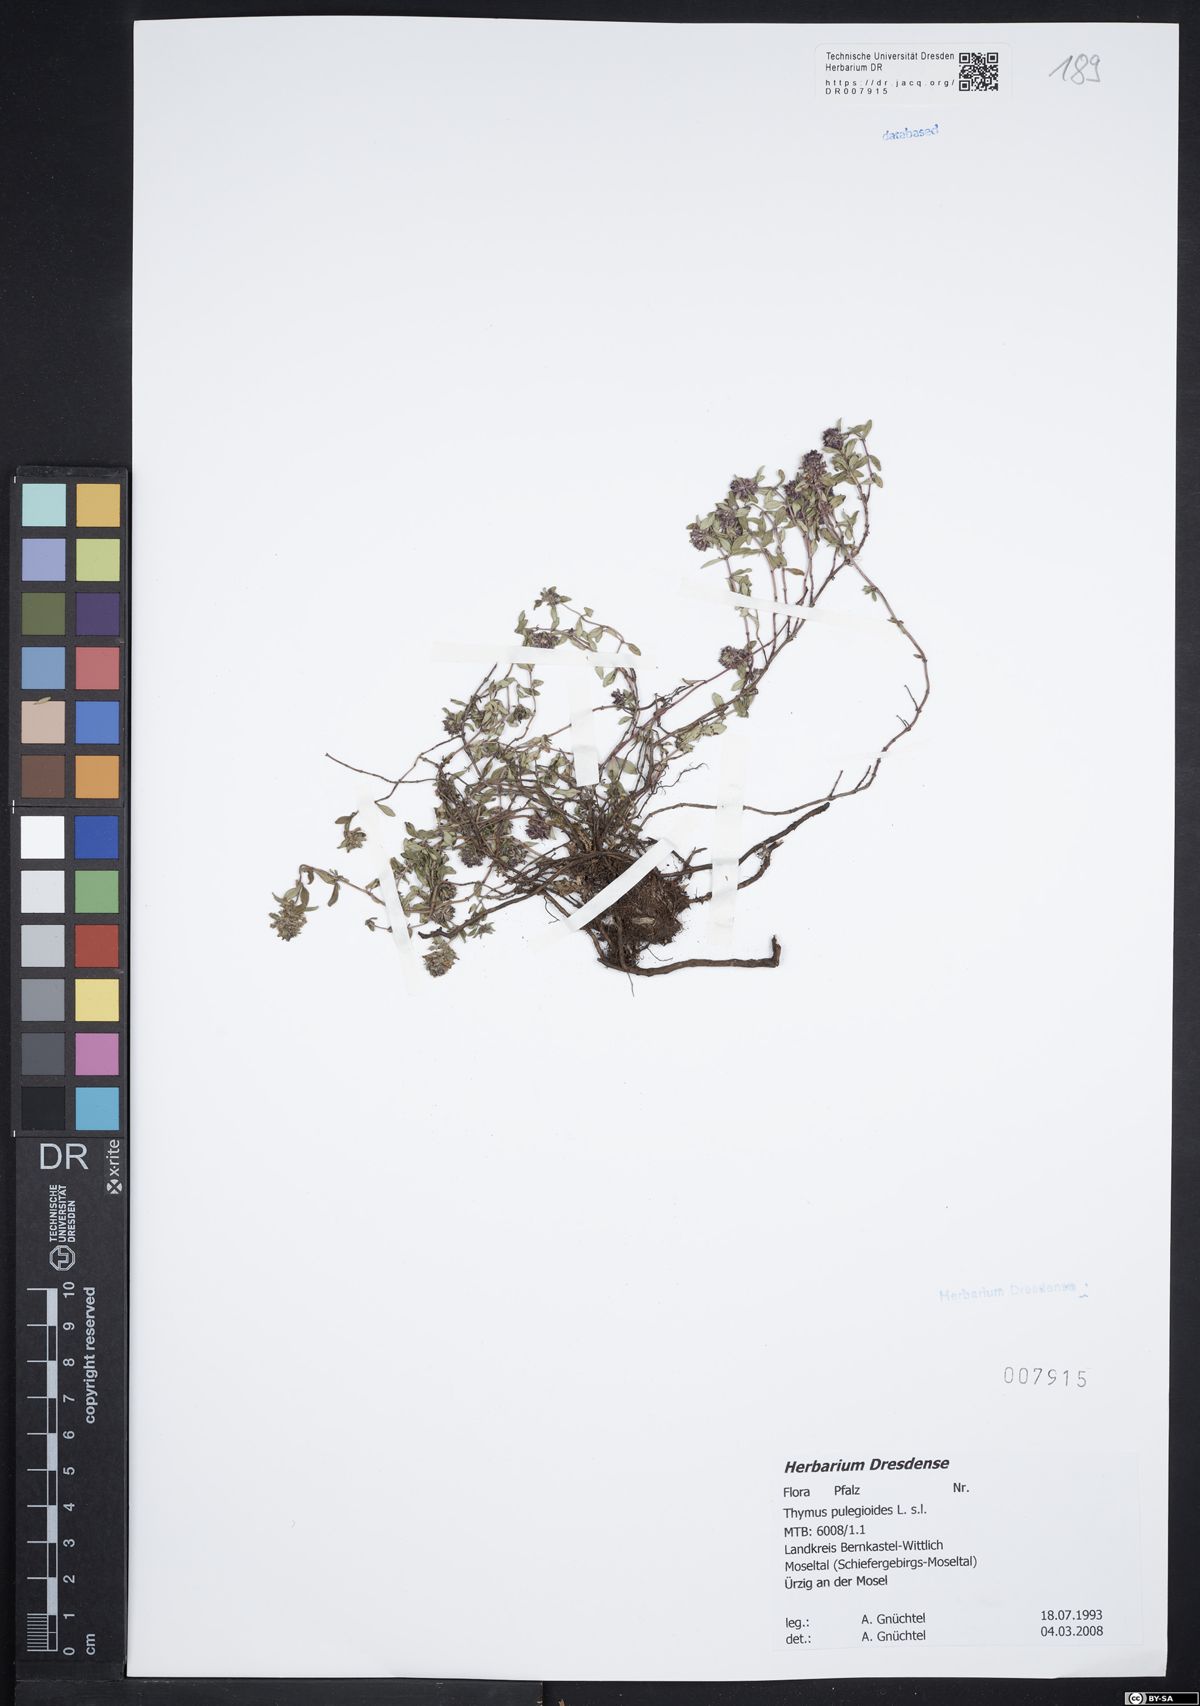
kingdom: Plantae
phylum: Tracheophyta
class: Magnoliopsida
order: Lamiales
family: Lamiaceae
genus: Thymus
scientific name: Thymus pulegioides
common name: Large thyme
